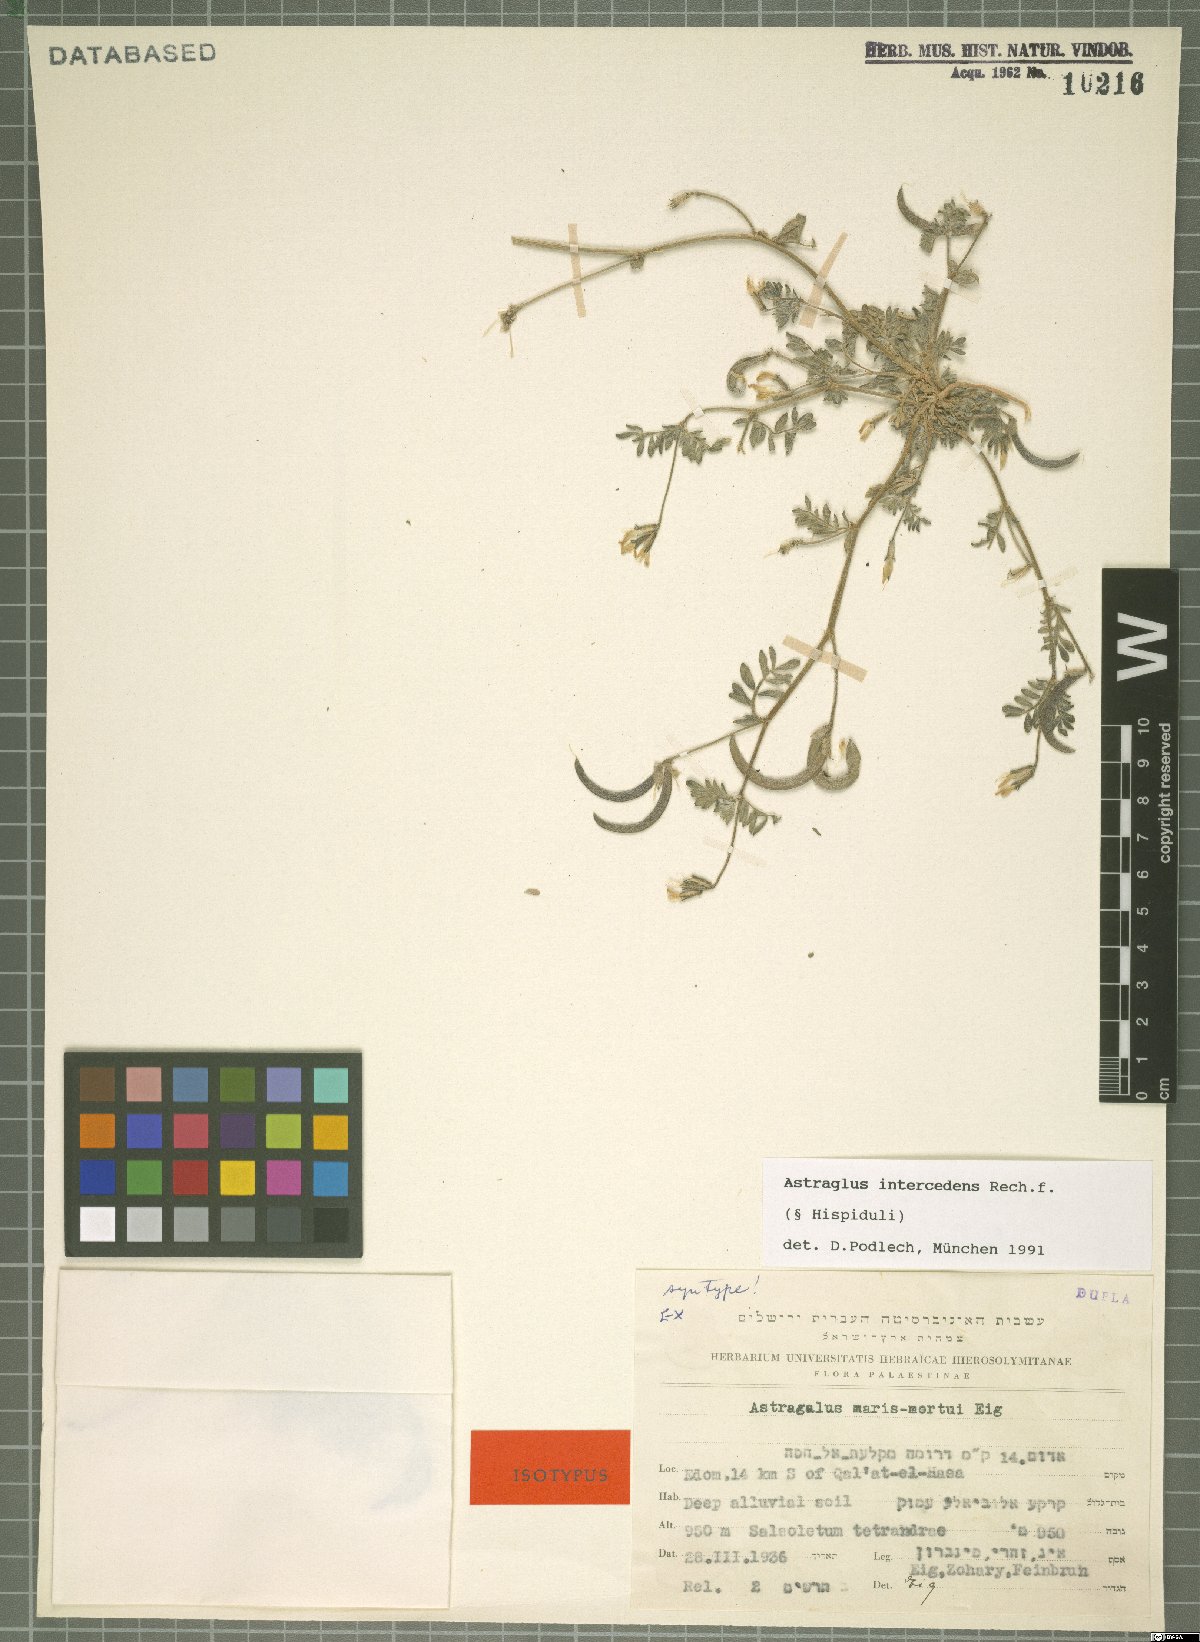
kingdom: Plantae
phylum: Tracheophyta
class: Magnoliopsida
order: Fabales
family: Fabaceae
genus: Astragalus
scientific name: Astragalus intercedens
